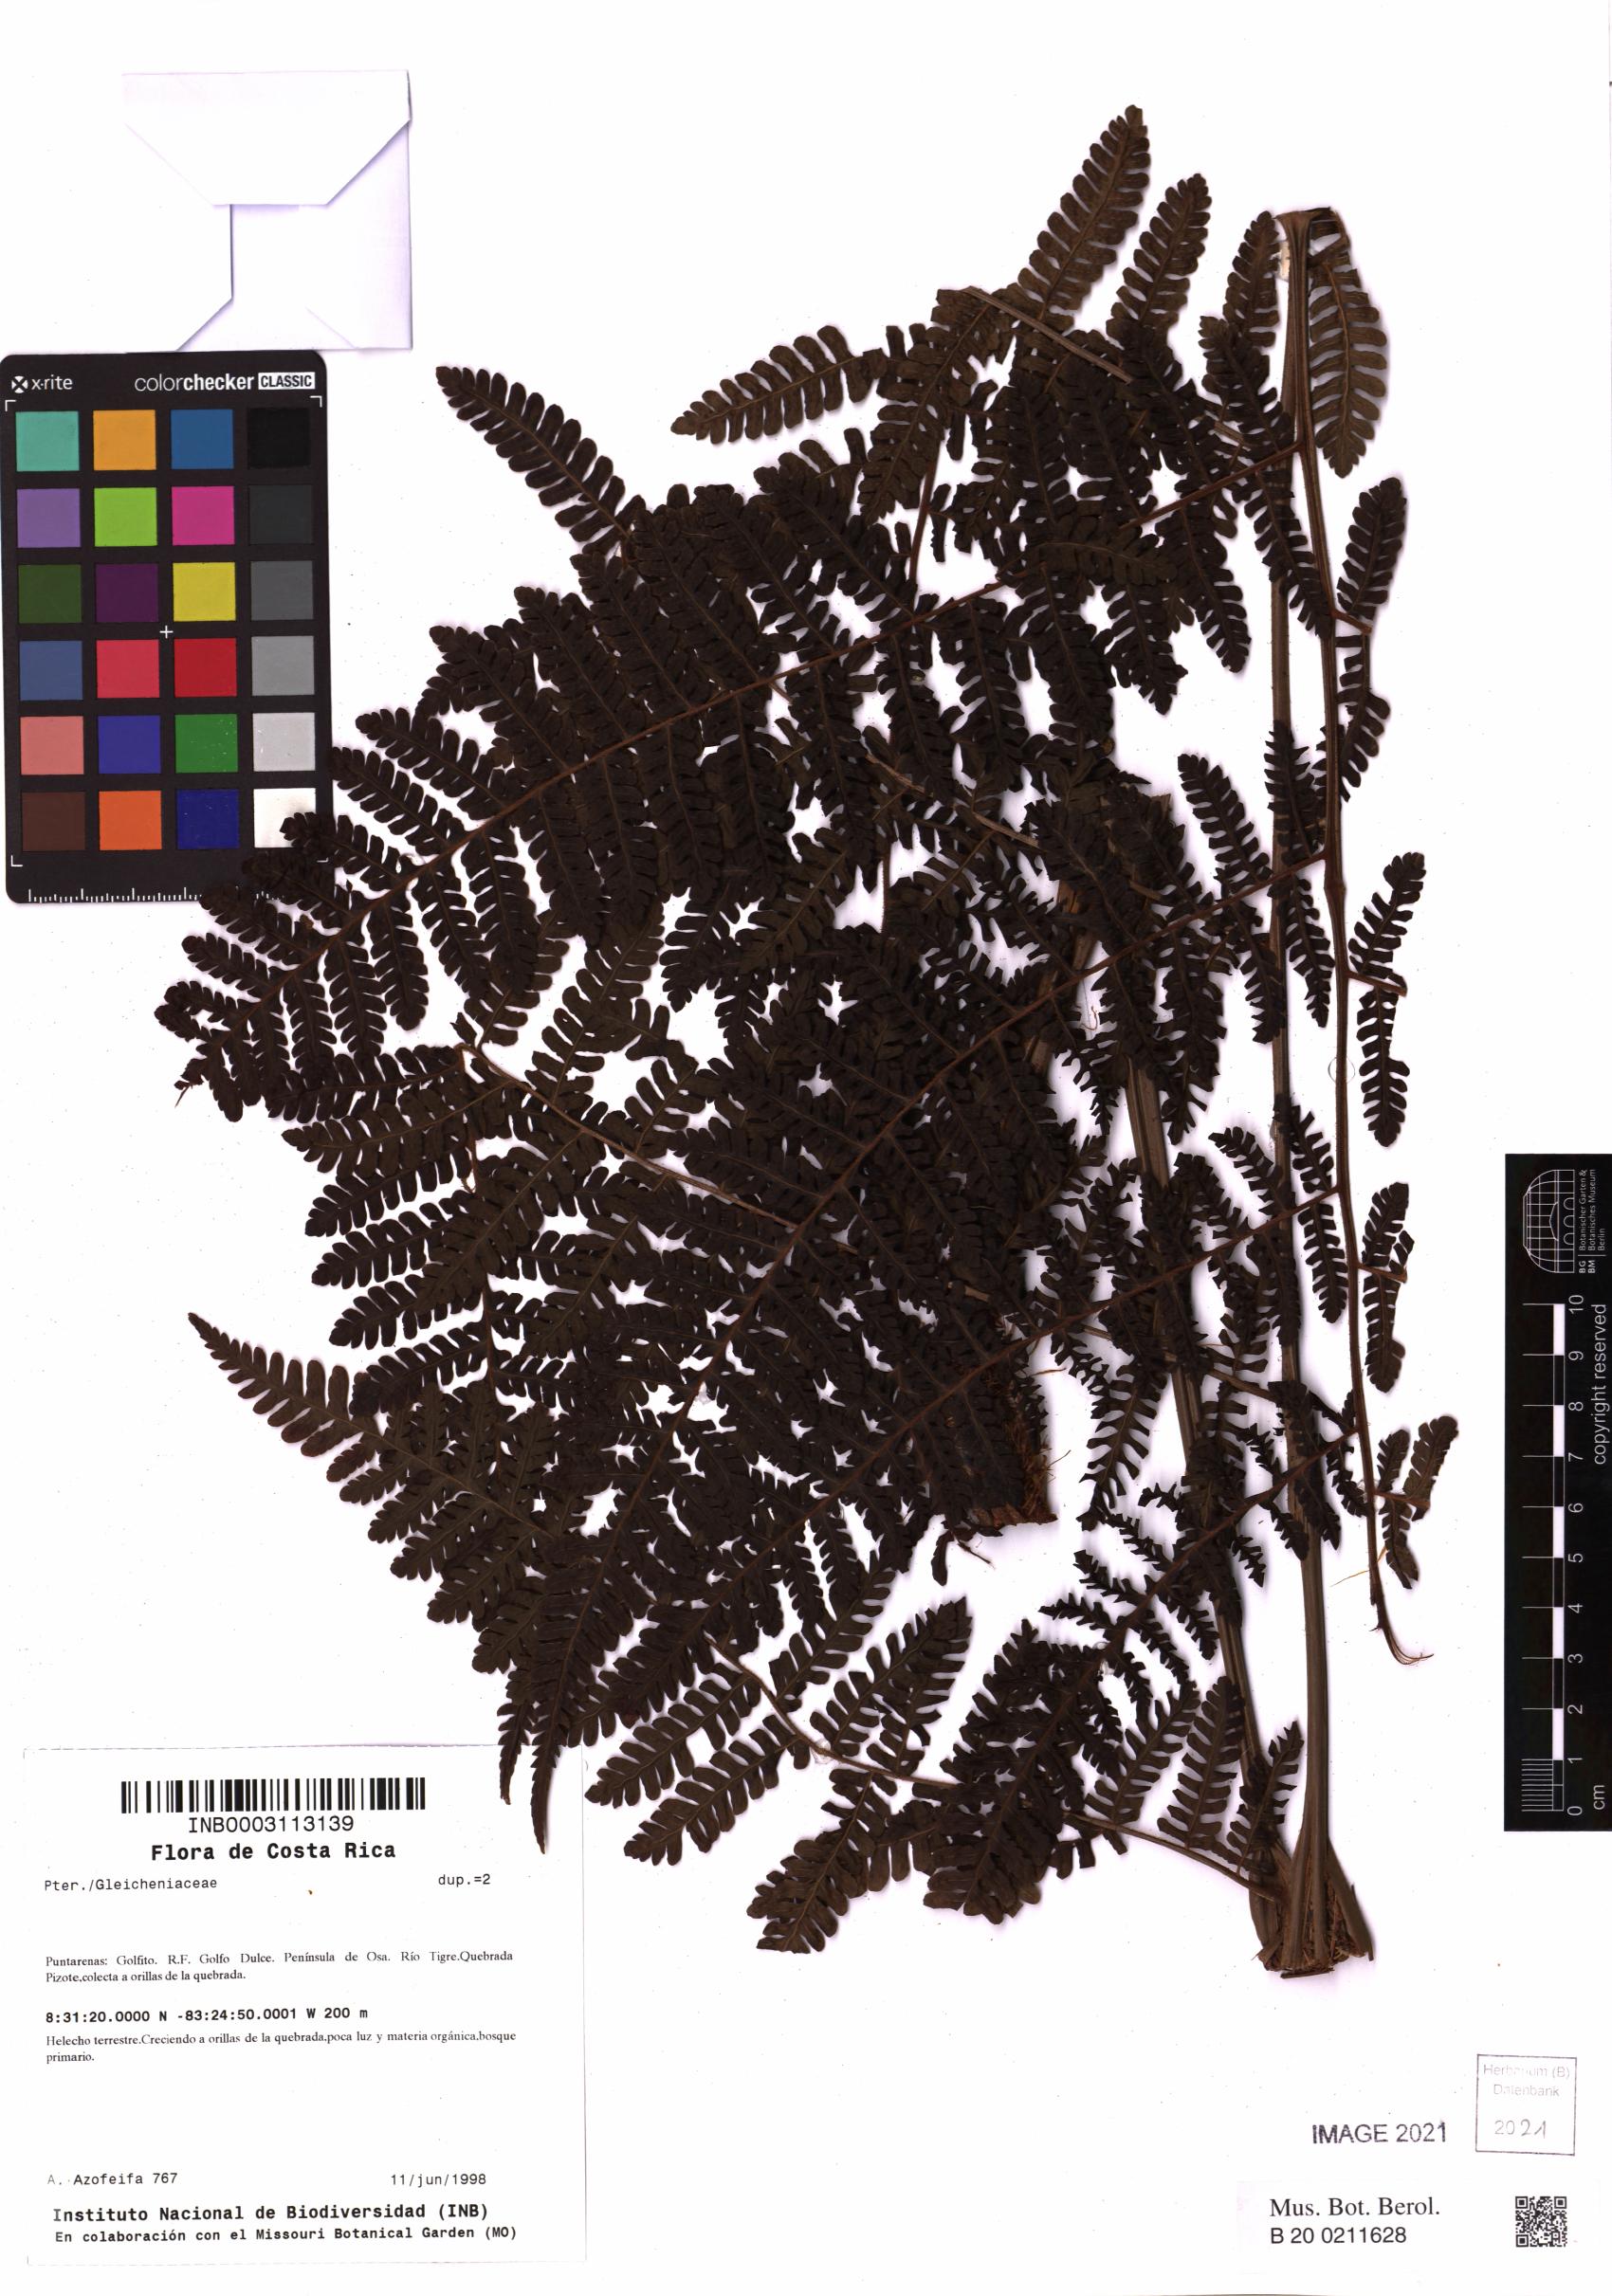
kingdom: Plantae
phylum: Tracheophyta
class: Polypodiopsida
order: Gleicheniales
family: Gleicheniaceae
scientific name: Gleicheniaceae
